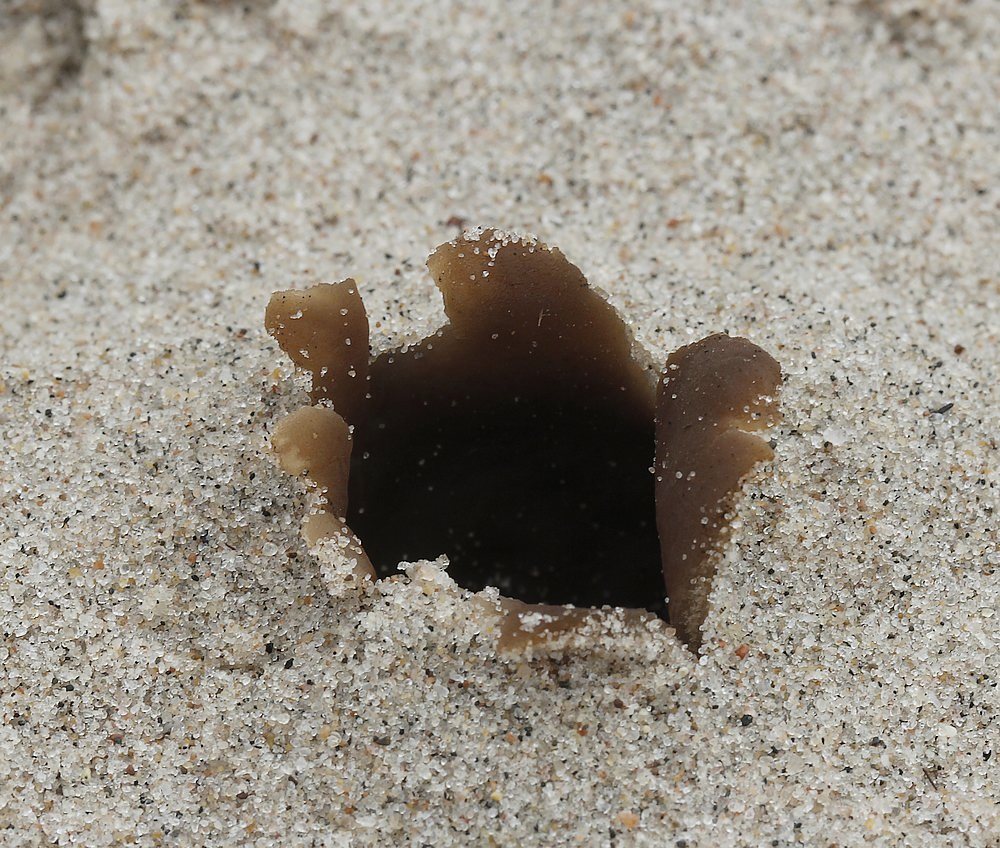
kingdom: Fungi
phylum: Ascomycota
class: Pezizomycetes
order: Pezizales
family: Pyronemataceae
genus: Lamprospora
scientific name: Lamprospora ammophila
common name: klit-bægersvamp
